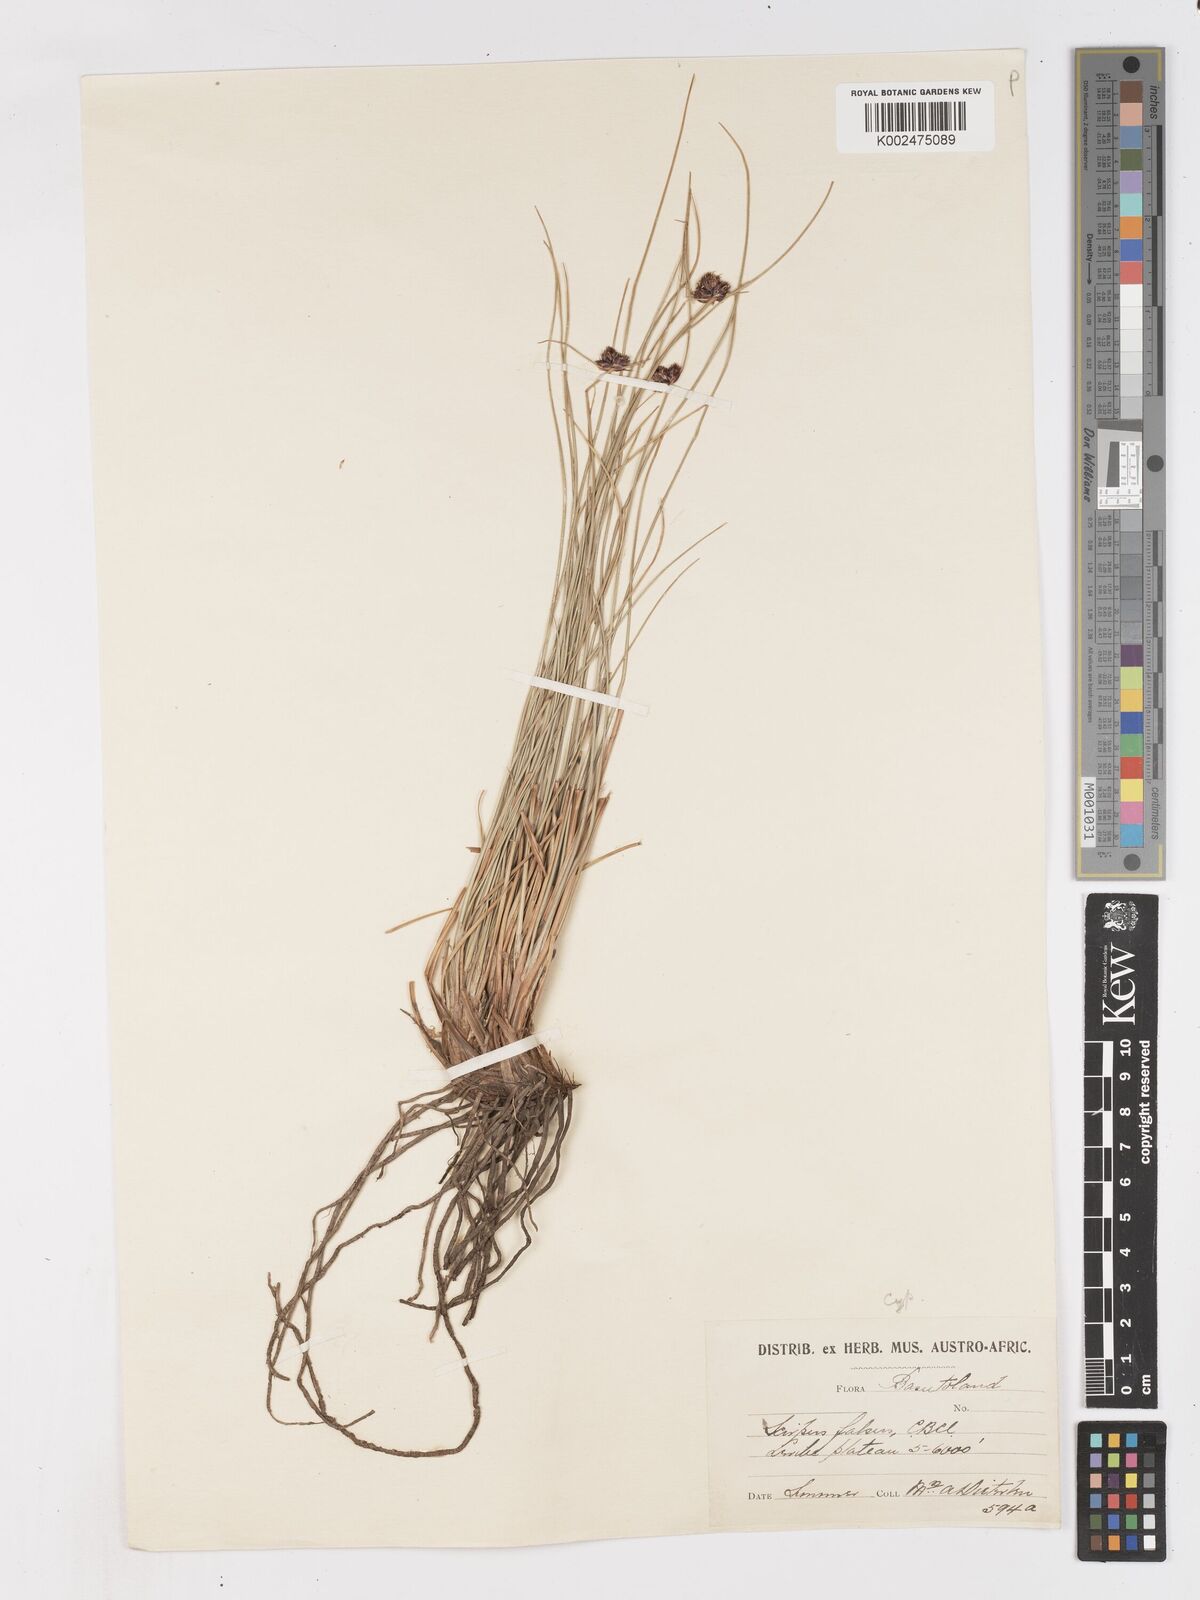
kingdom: Plantae
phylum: Tracheophyta
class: Liliopsida
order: Poales
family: Cyperaceae
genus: Ficinia
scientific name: Ficinia
